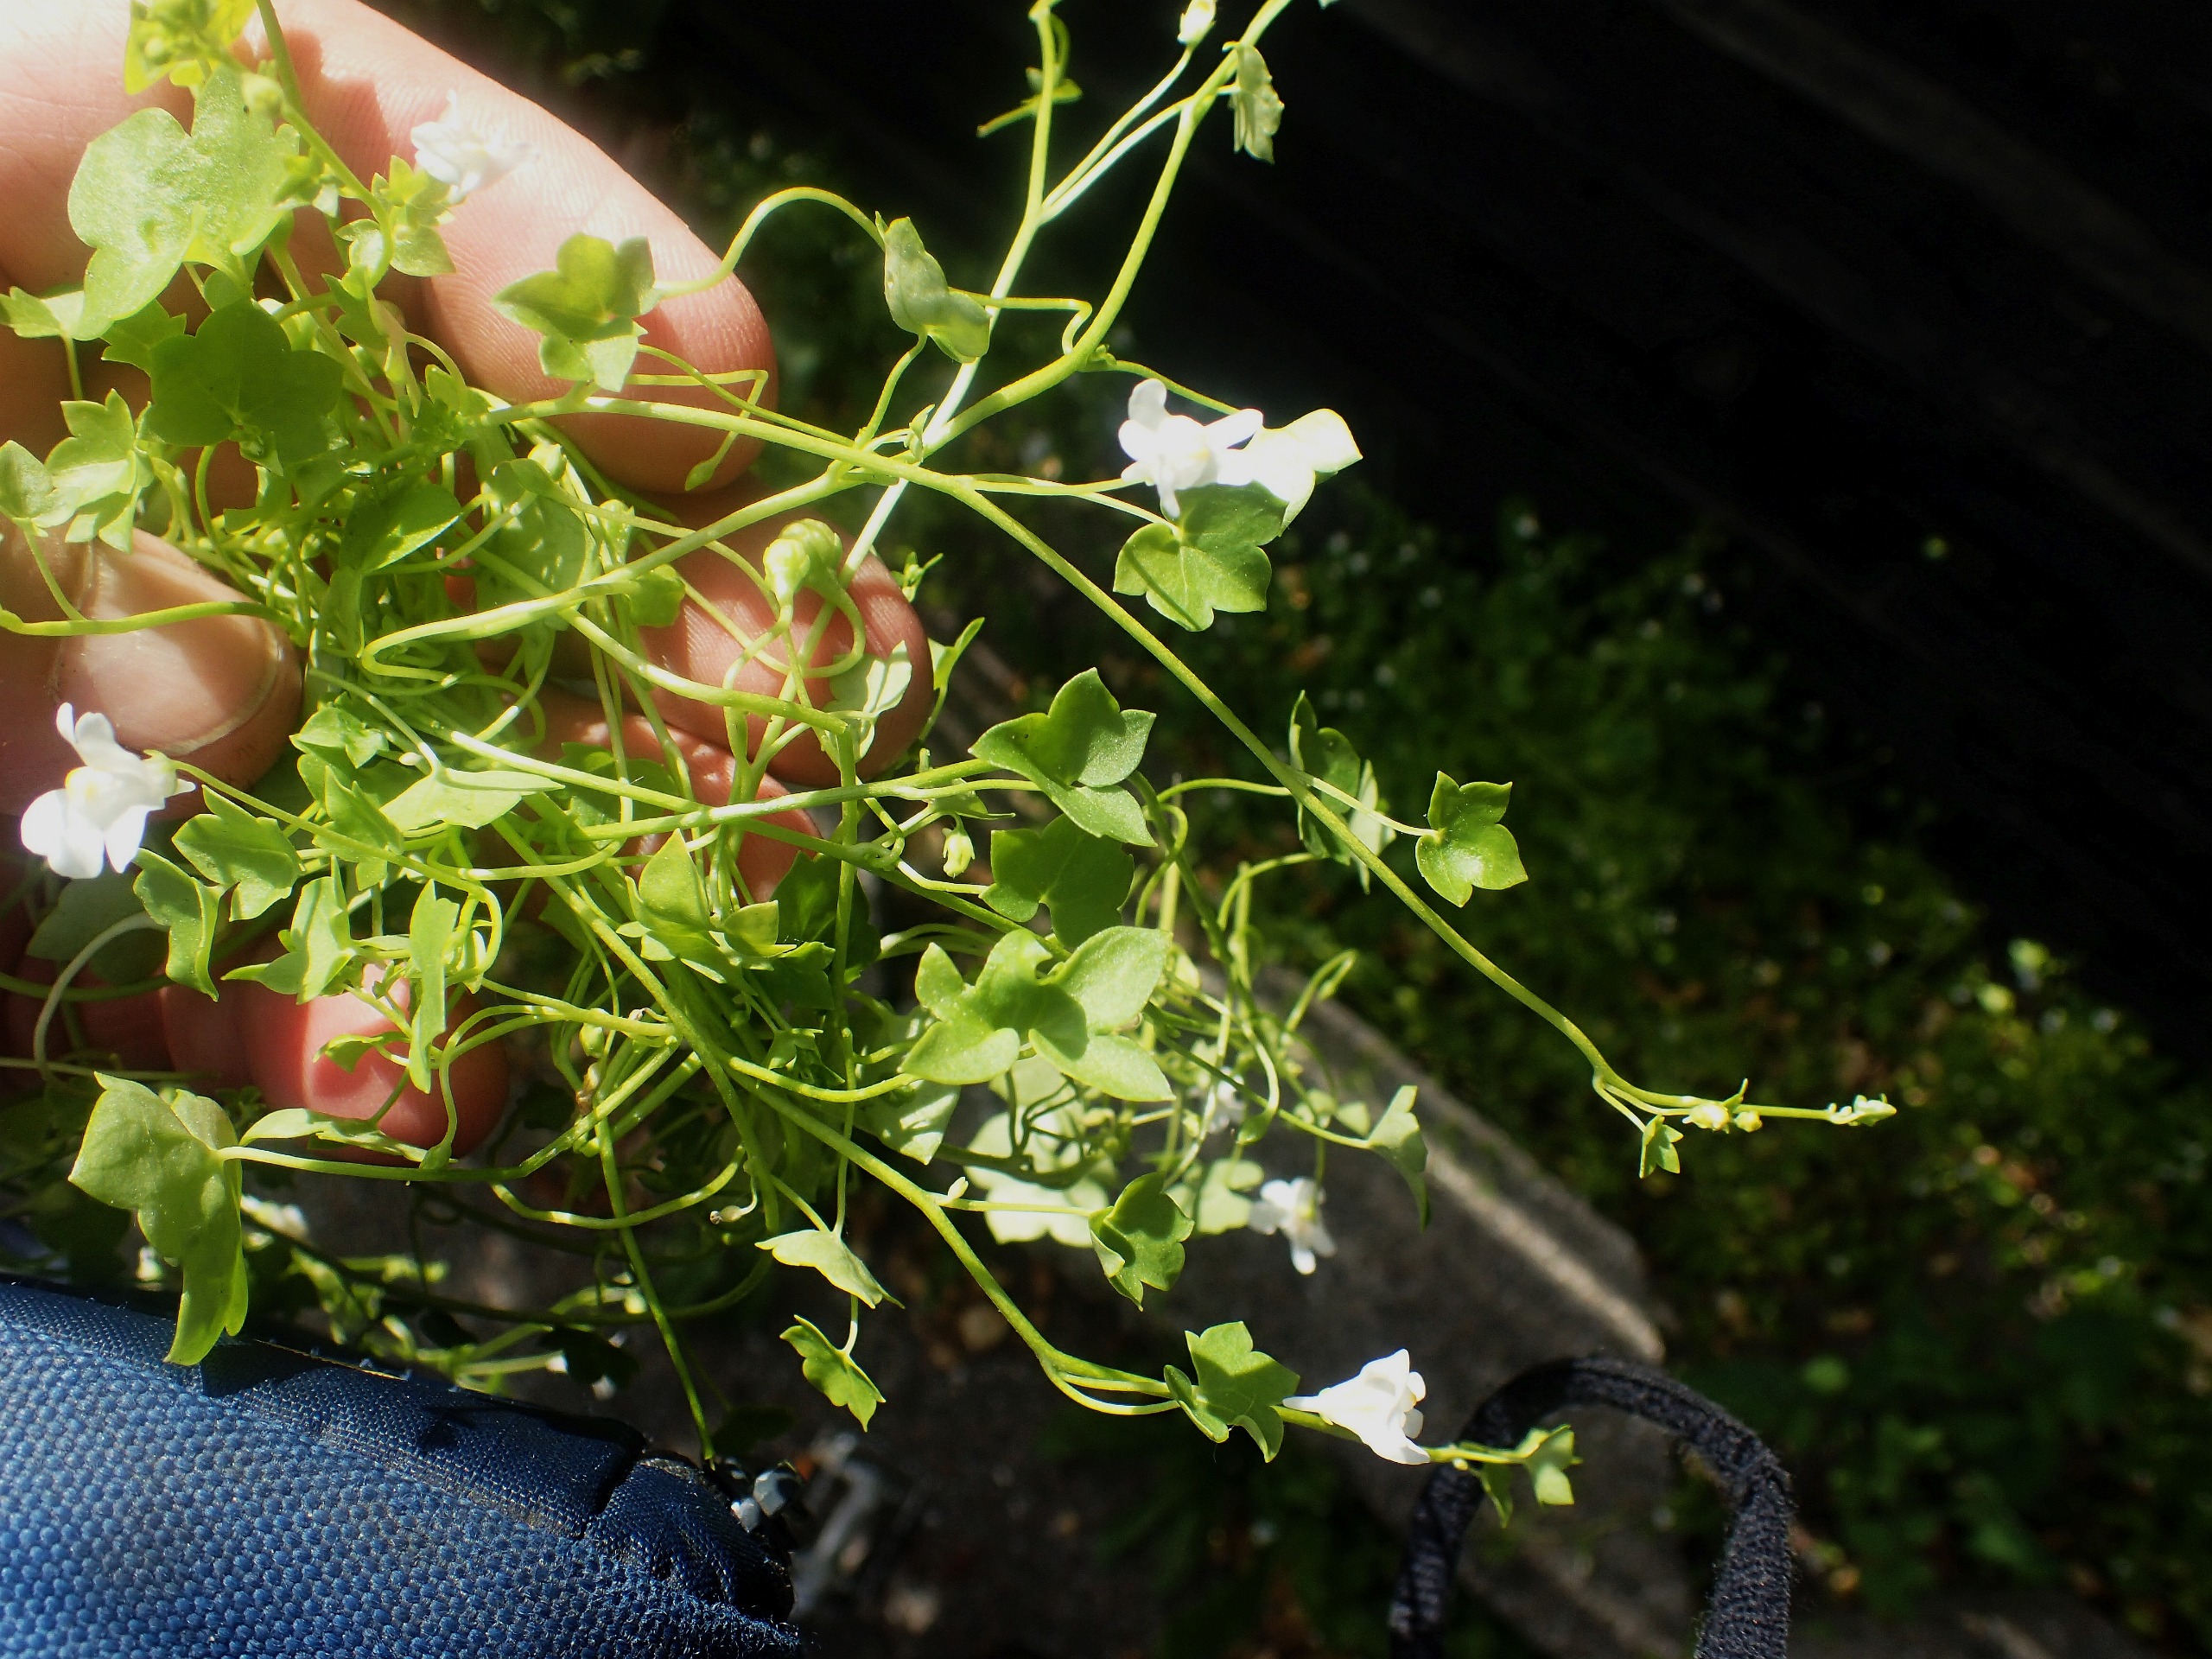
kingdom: Plantae
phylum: Tracheophyta
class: Magnoliopsida
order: Lamiales
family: Plantaginaceae
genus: Cymbalaria
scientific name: Cymbalaria muralis
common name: Vedbend-torskemund
